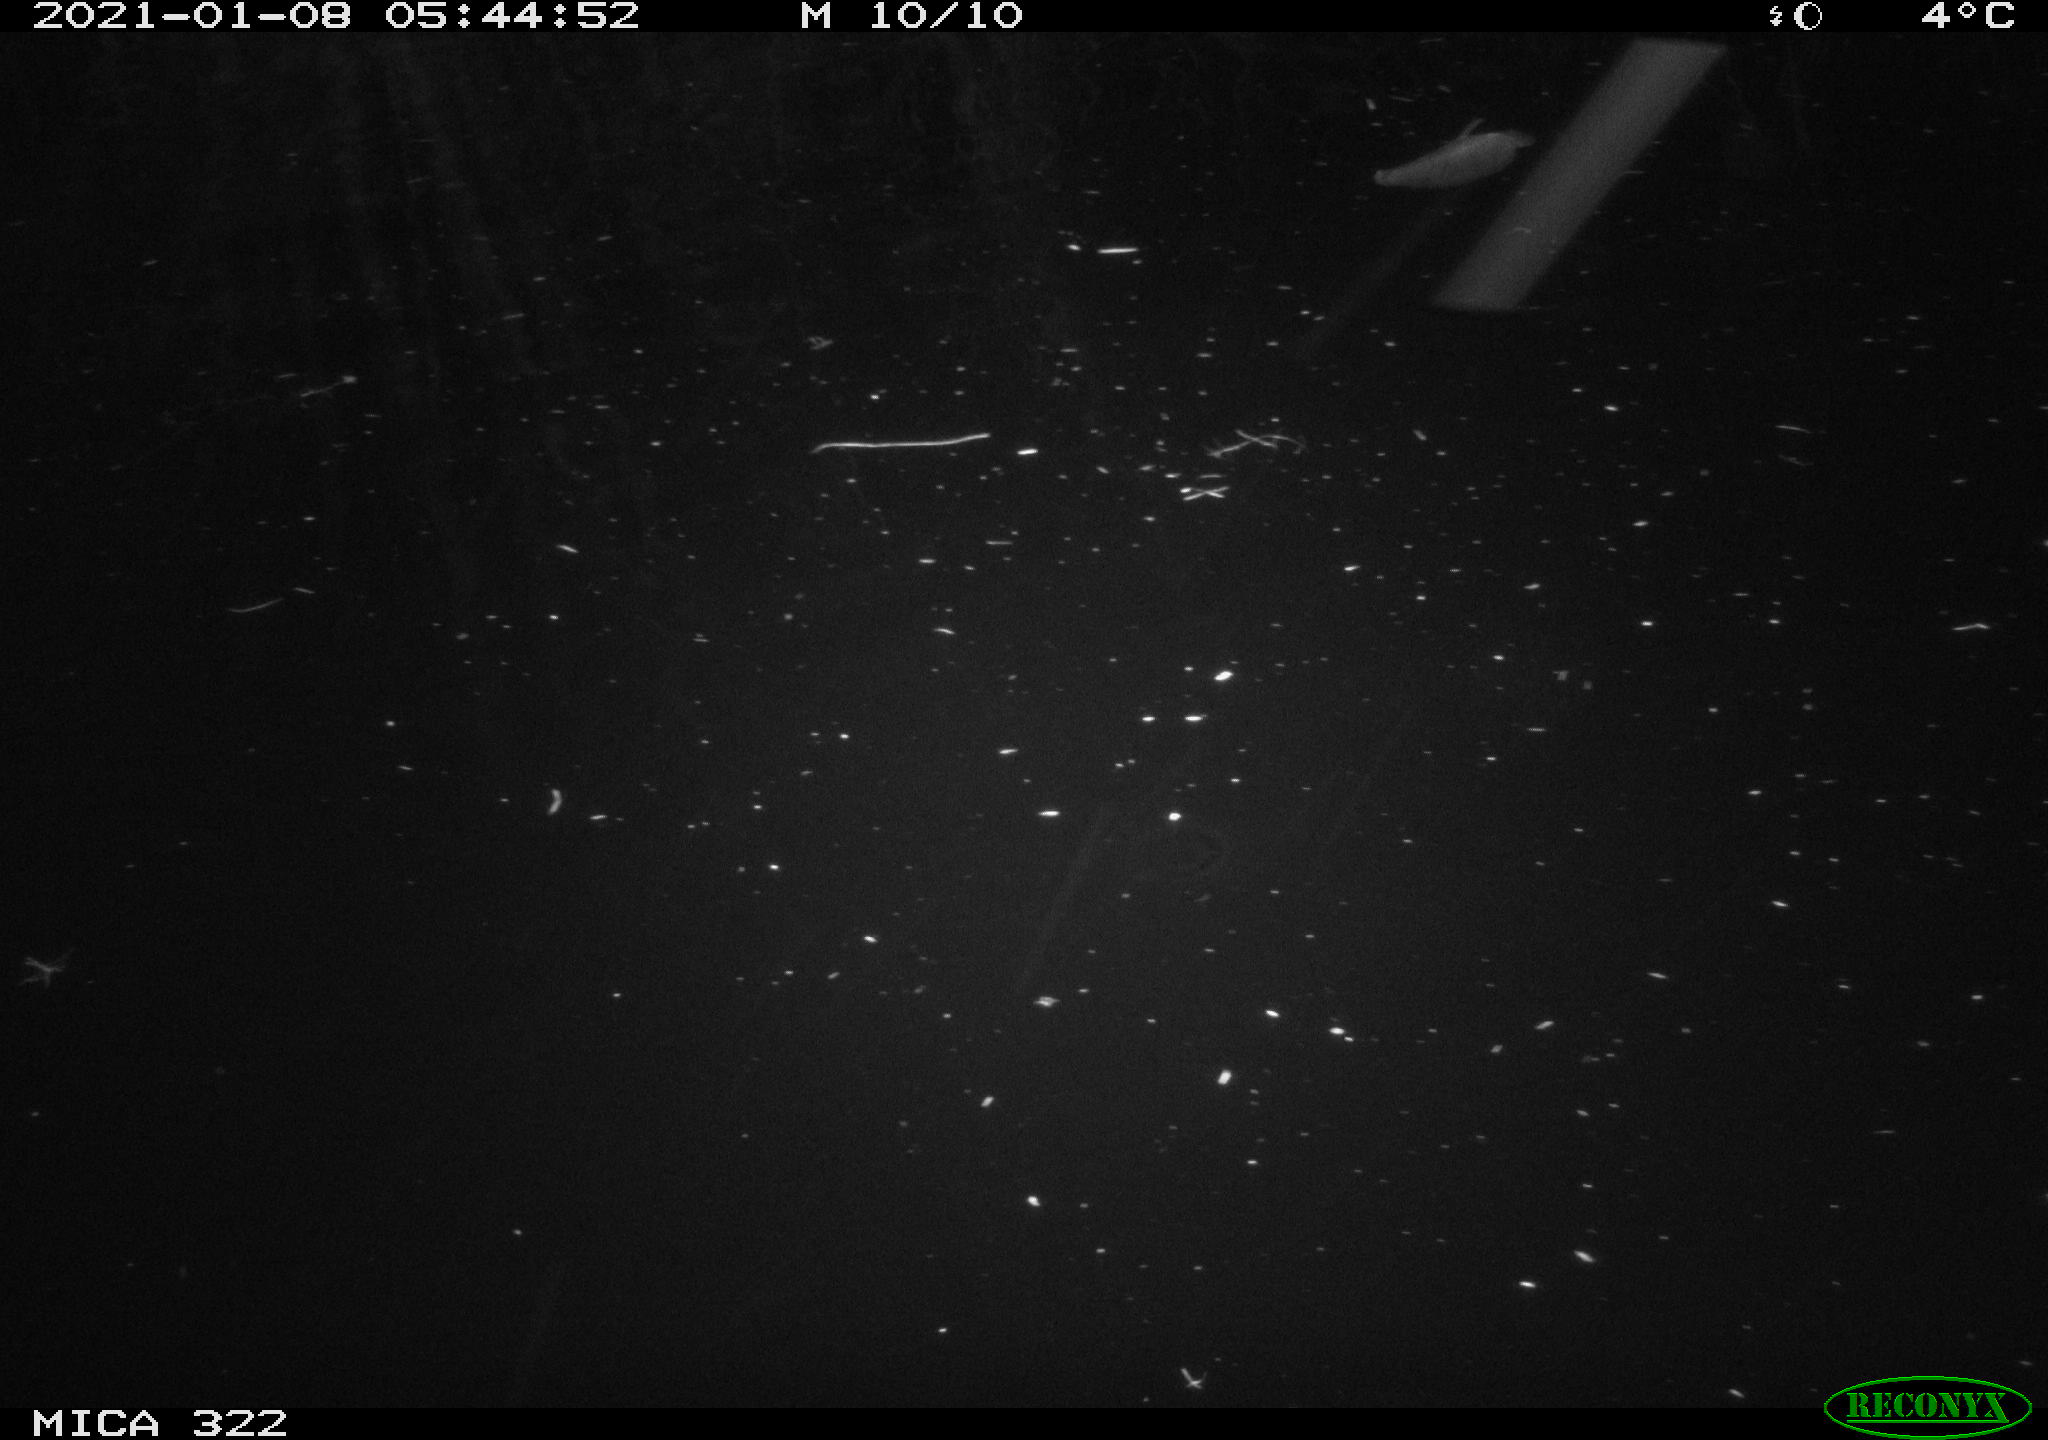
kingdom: Animalia
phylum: Chordata
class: Mammalia
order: Rodentia
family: Muridae
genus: Rattus
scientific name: Rattus norvegicus
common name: Brown rat
